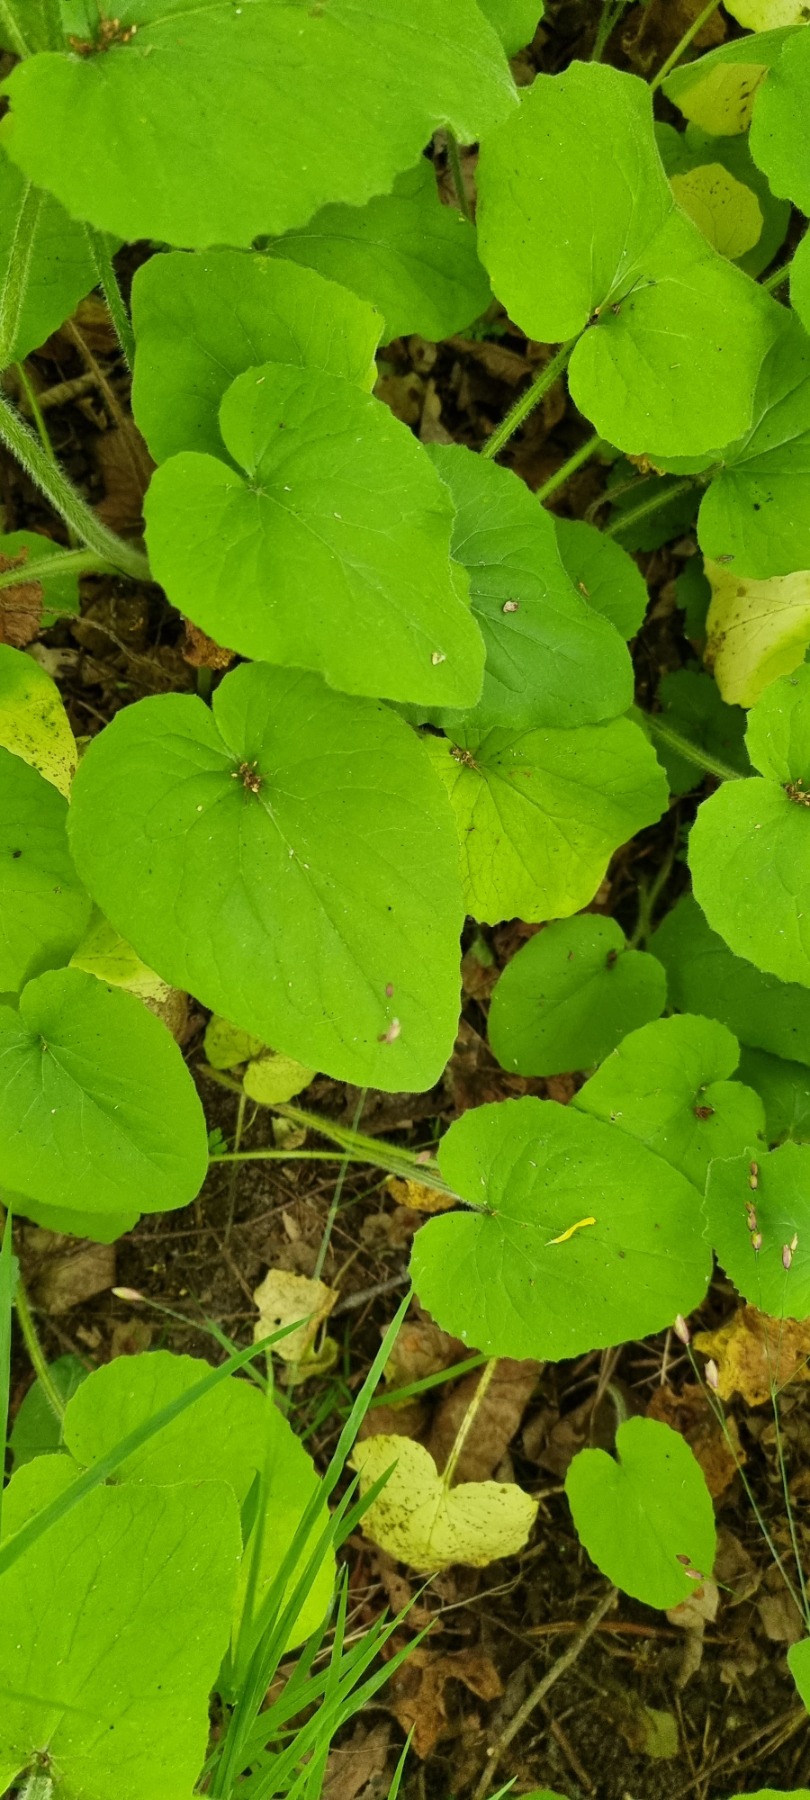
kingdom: Plantae
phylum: Tracheophyta
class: Magnoliopsida
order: Asterales
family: Asteraceae
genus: Doronicum
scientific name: Doronicum pardalianches
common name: Hjertebladet gemserod
